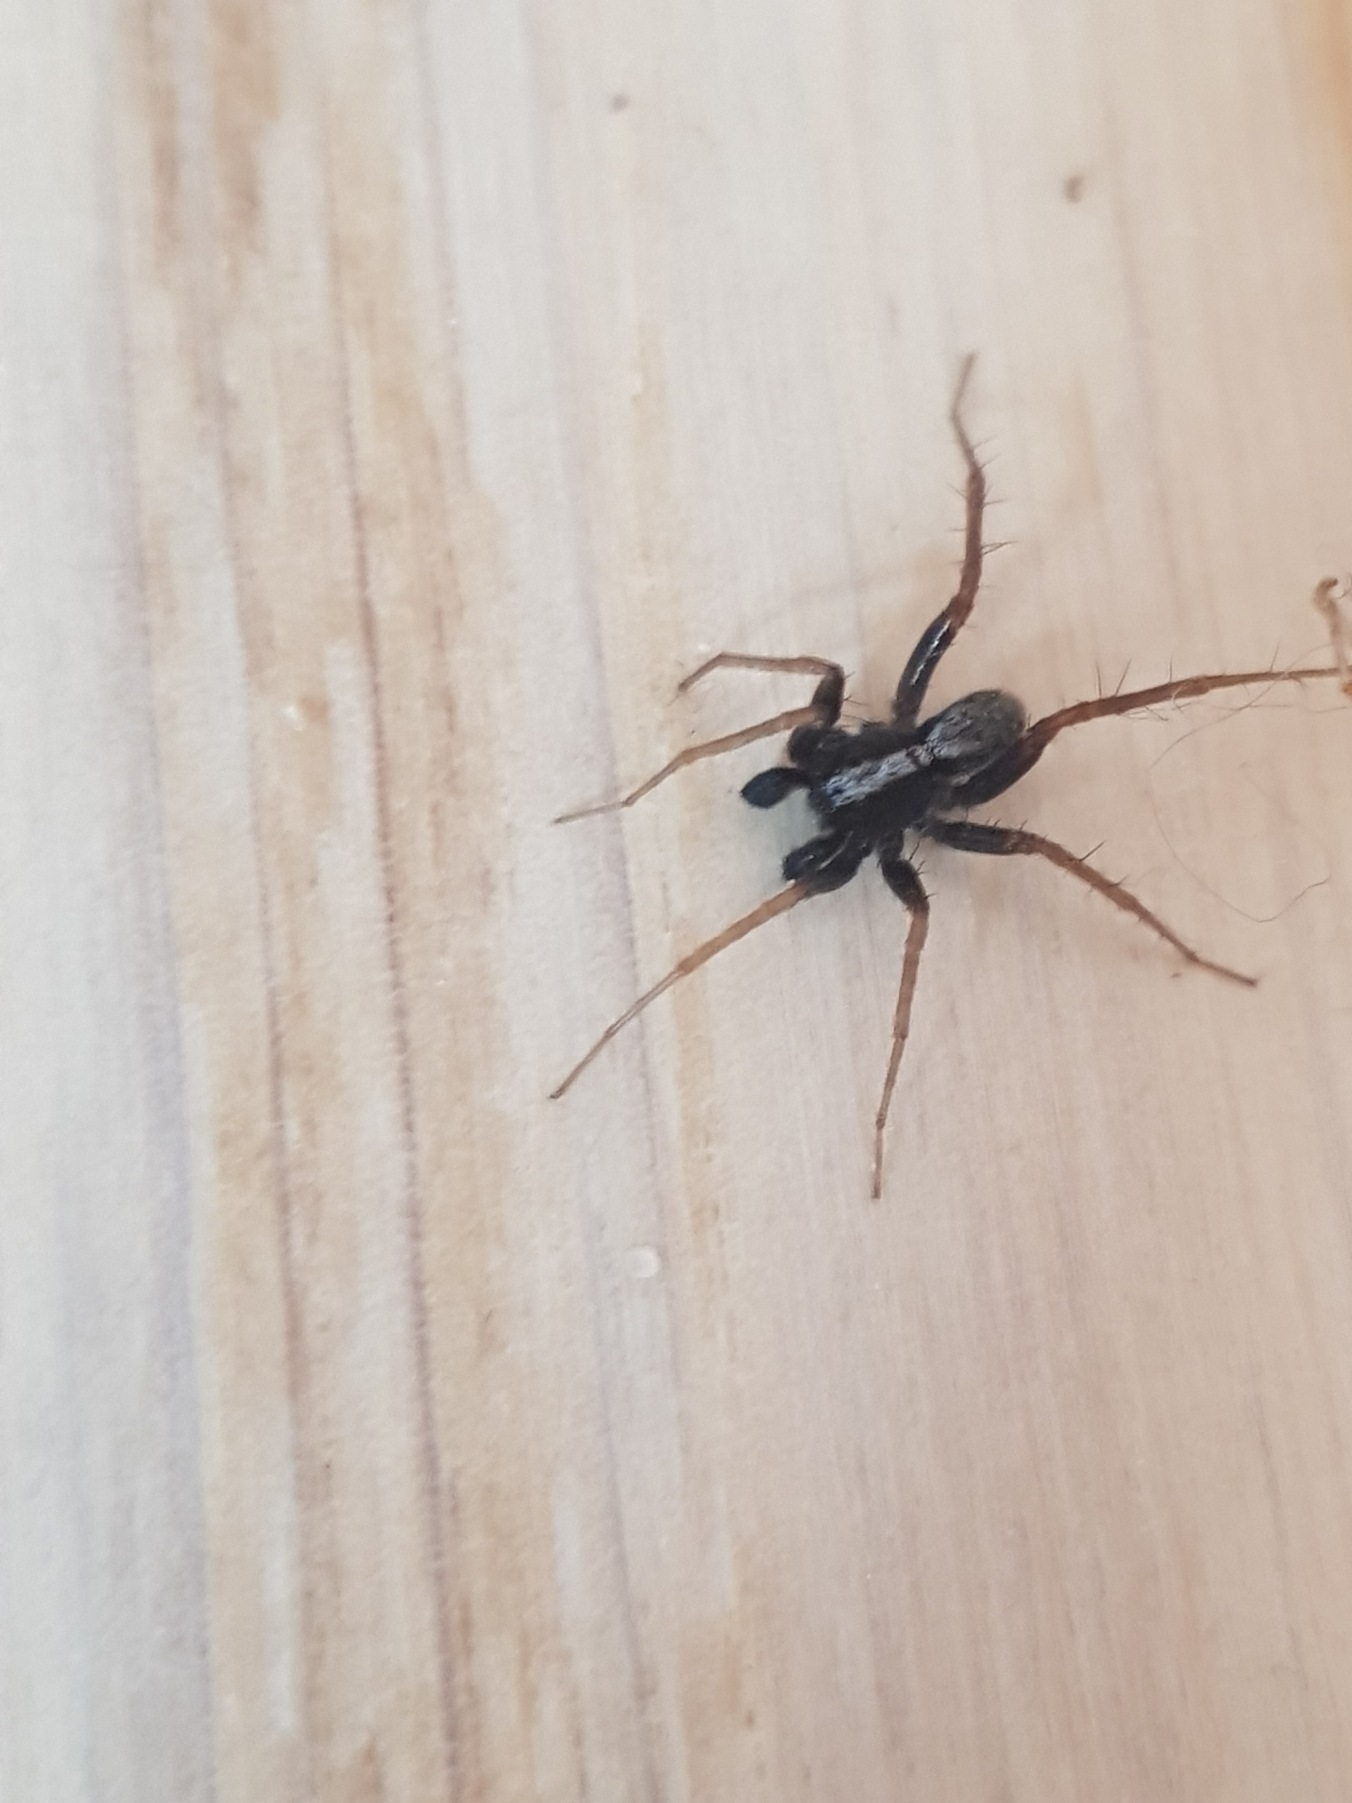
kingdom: Animalia
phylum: Arthropoda
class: Arachnida
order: Araneae
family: Lycosidae
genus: Pardosa
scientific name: Pardosa
